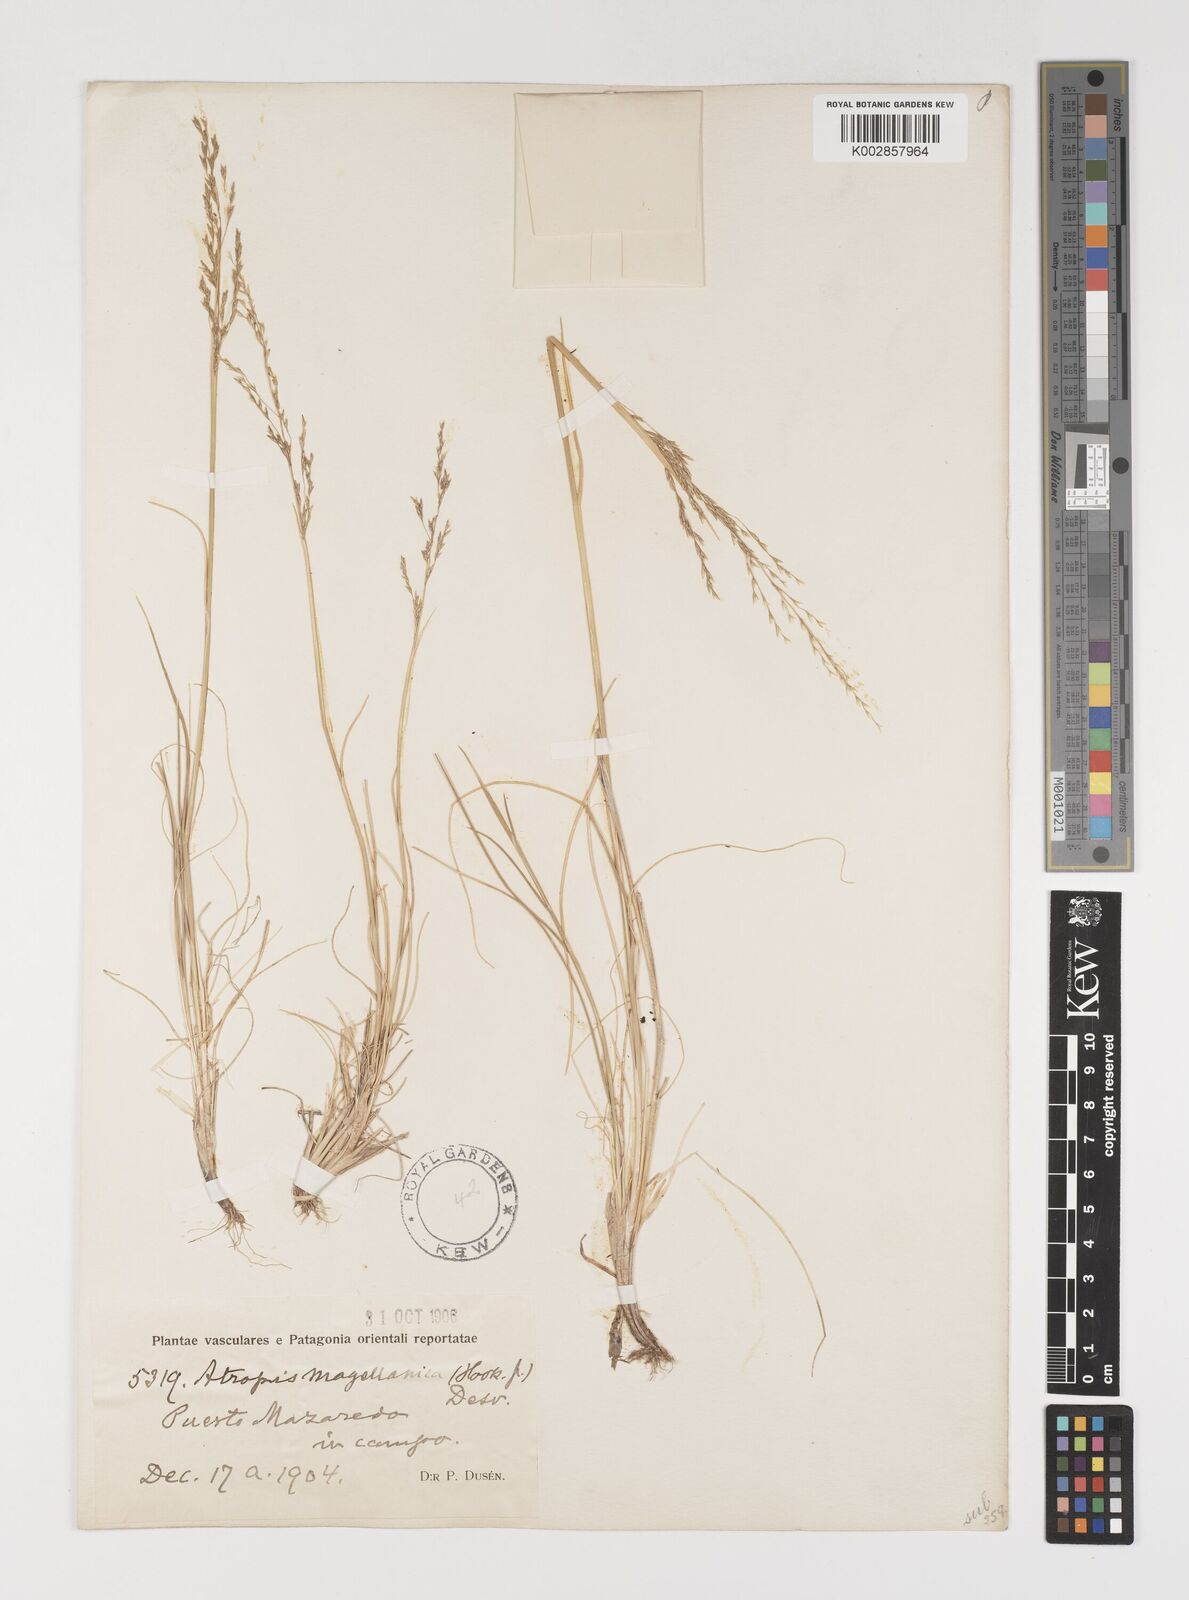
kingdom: Plantae
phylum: Tracheophyta
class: Liliopsida
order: Poales
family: Poaceae
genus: Puccinellia
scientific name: Puccinellia magellanica
